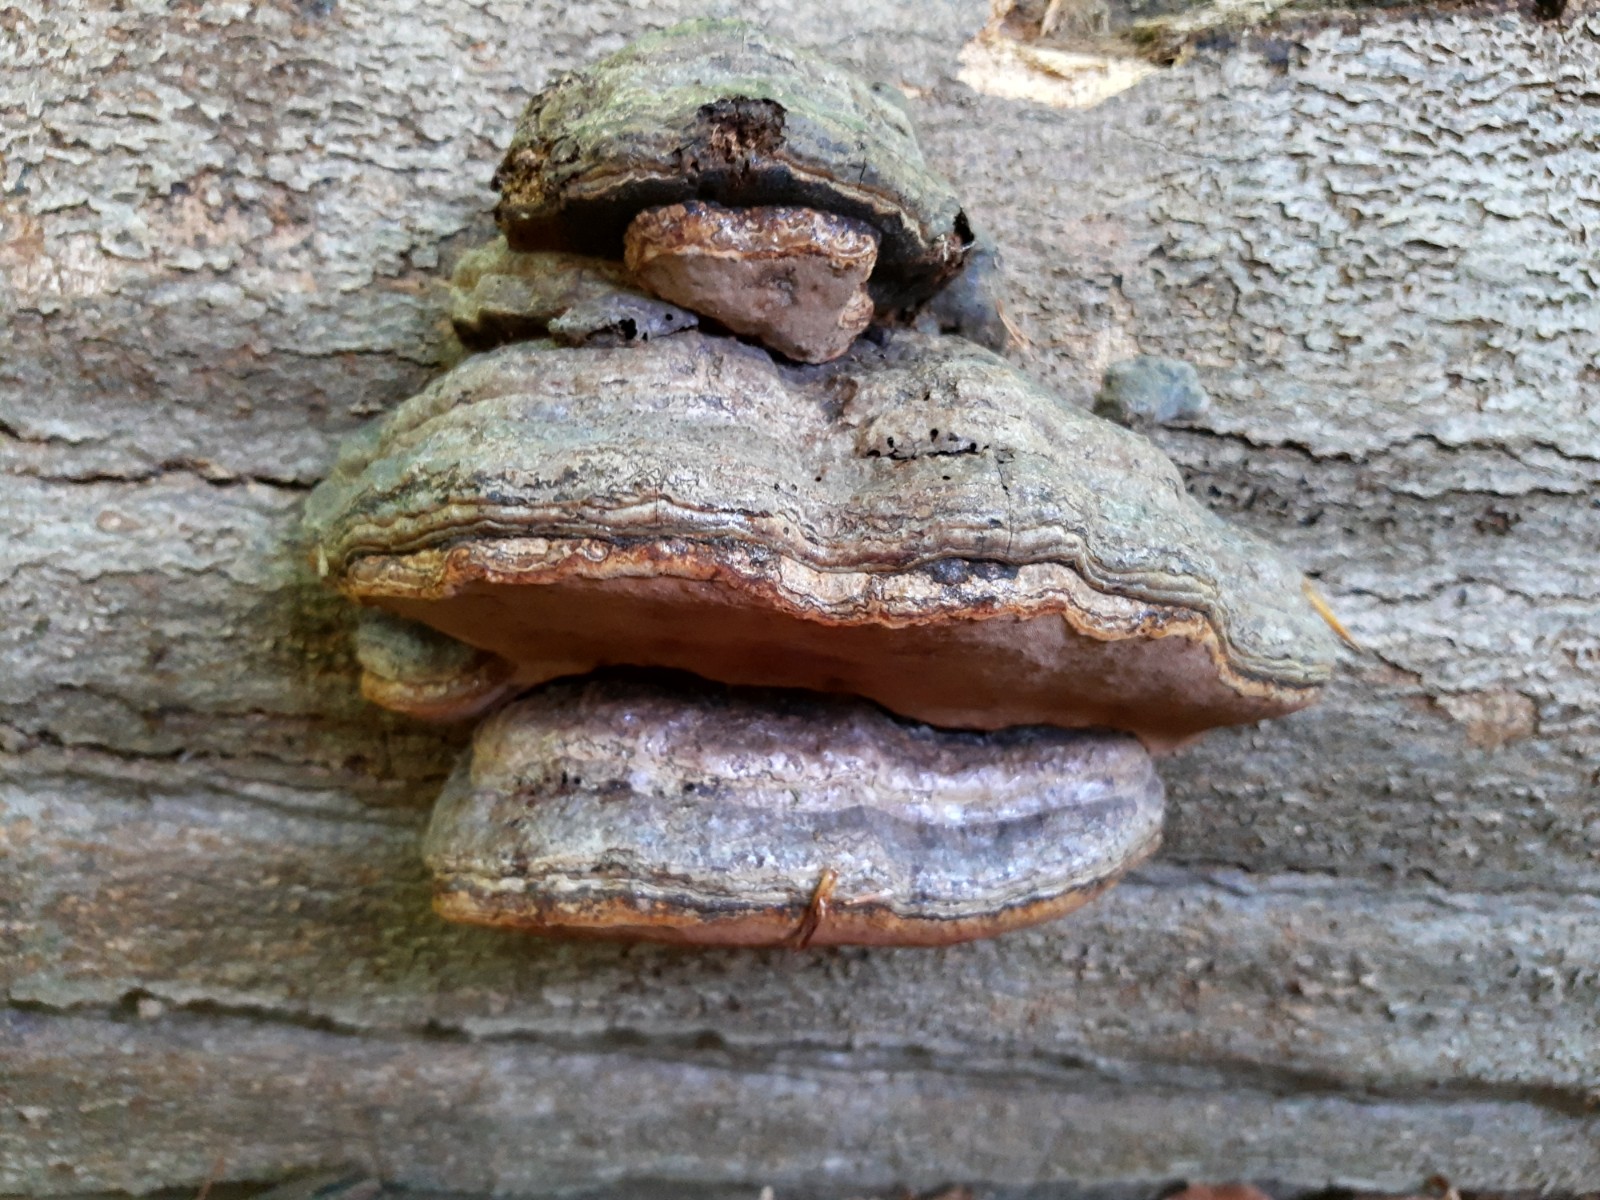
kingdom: Fungi
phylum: Basidiomycota
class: Agaricomycetes
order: Polyporales
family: Polyporaceae
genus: Fomes
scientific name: Fomes fomentarius
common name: tøndersvamp
